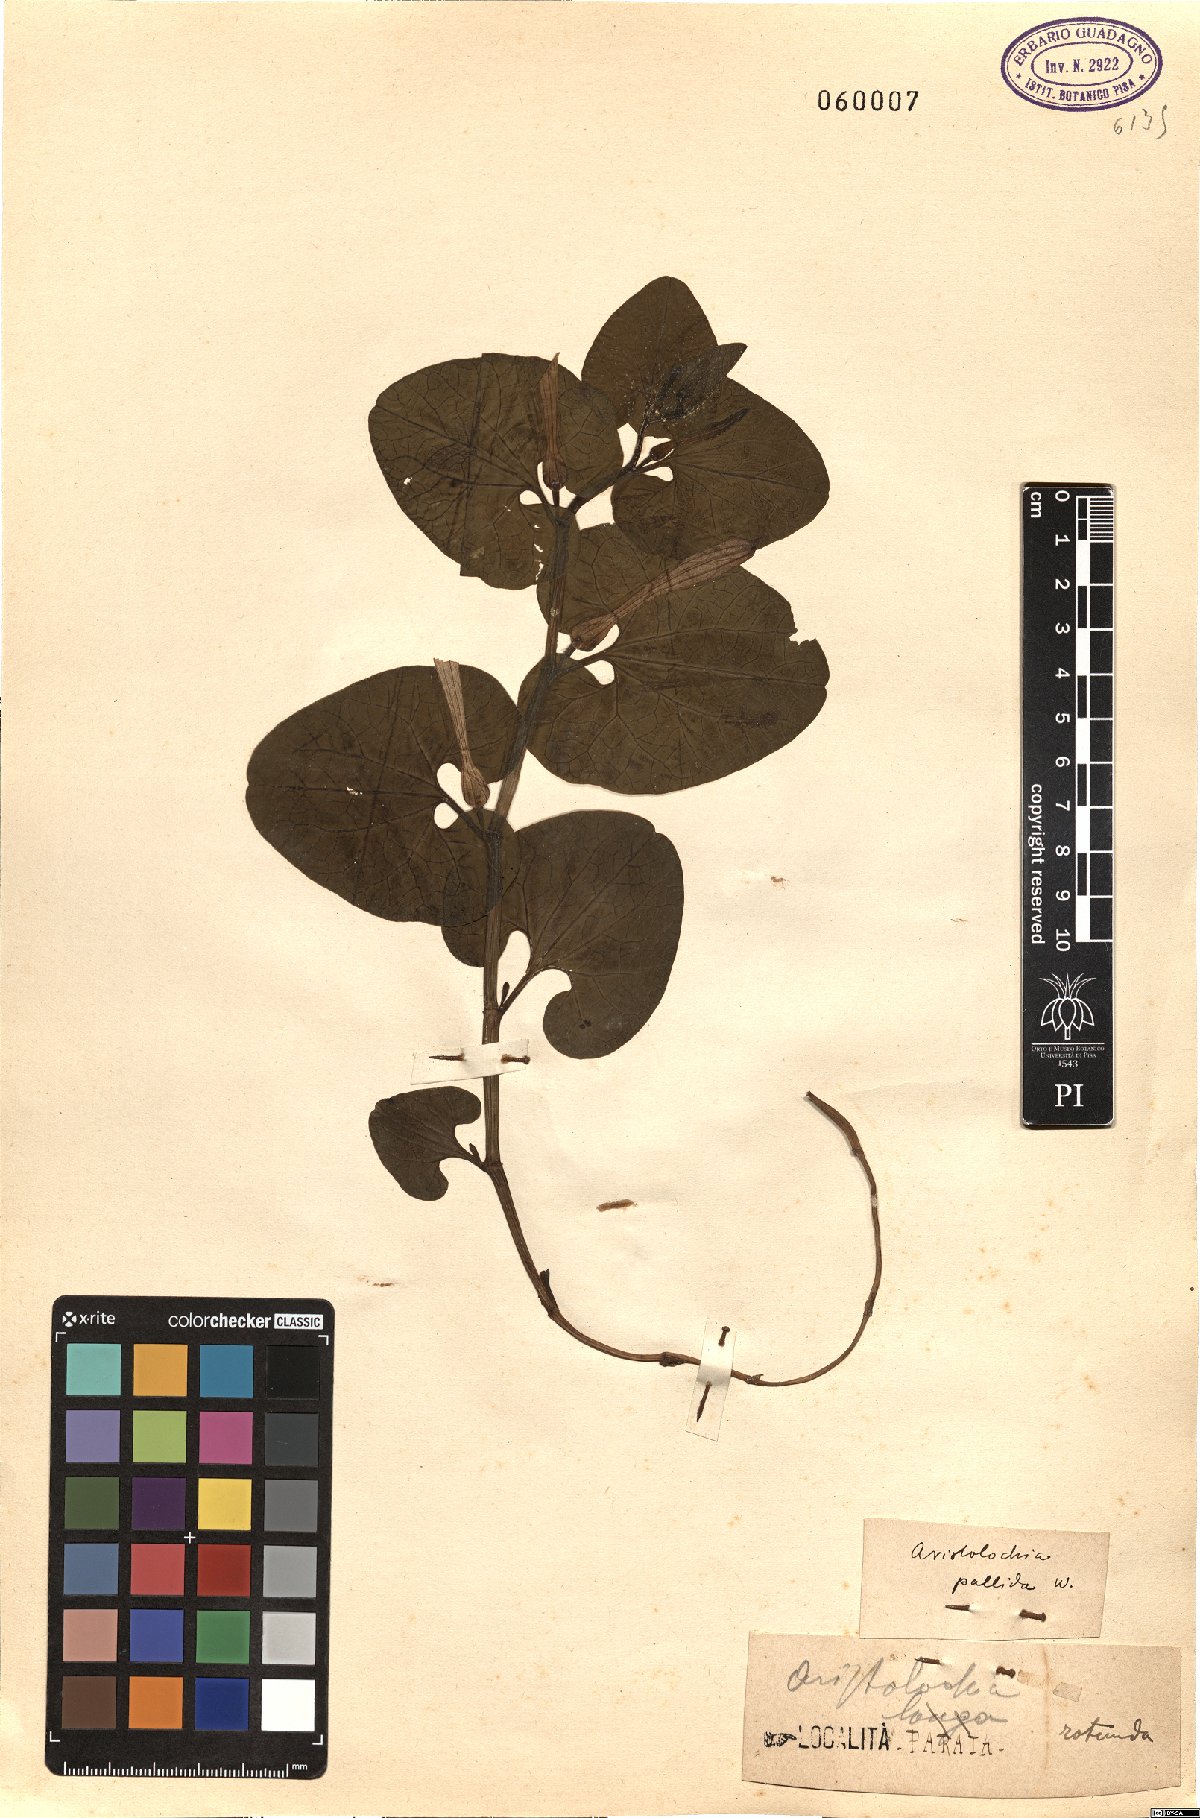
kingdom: Plantae
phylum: Tracheophyta
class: Liliopsida
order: Poales
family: Poaceae
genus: Aristida
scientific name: Aristida sieberiana
